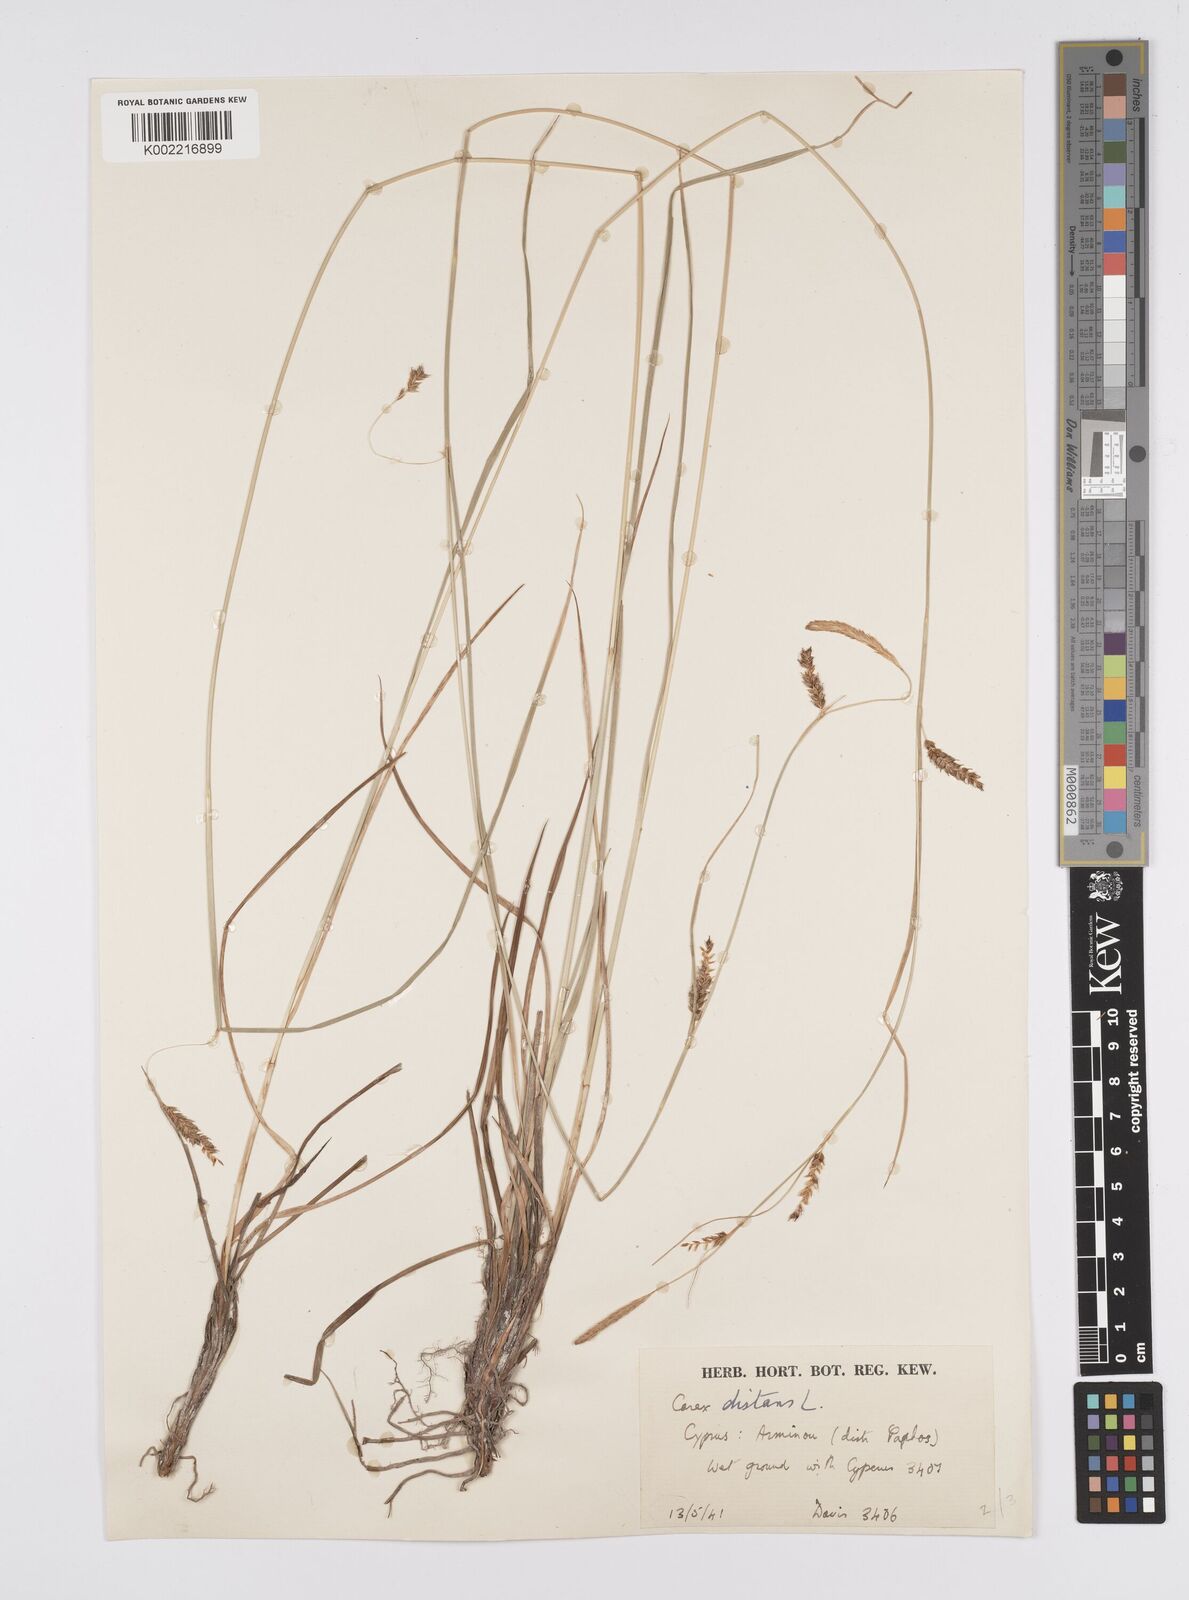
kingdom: Plantae
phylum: Tracheophyta
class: Liliopsida
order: Poales
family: Cyperaceae
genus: Carex
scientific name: Carex distans
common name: Distant sedge
